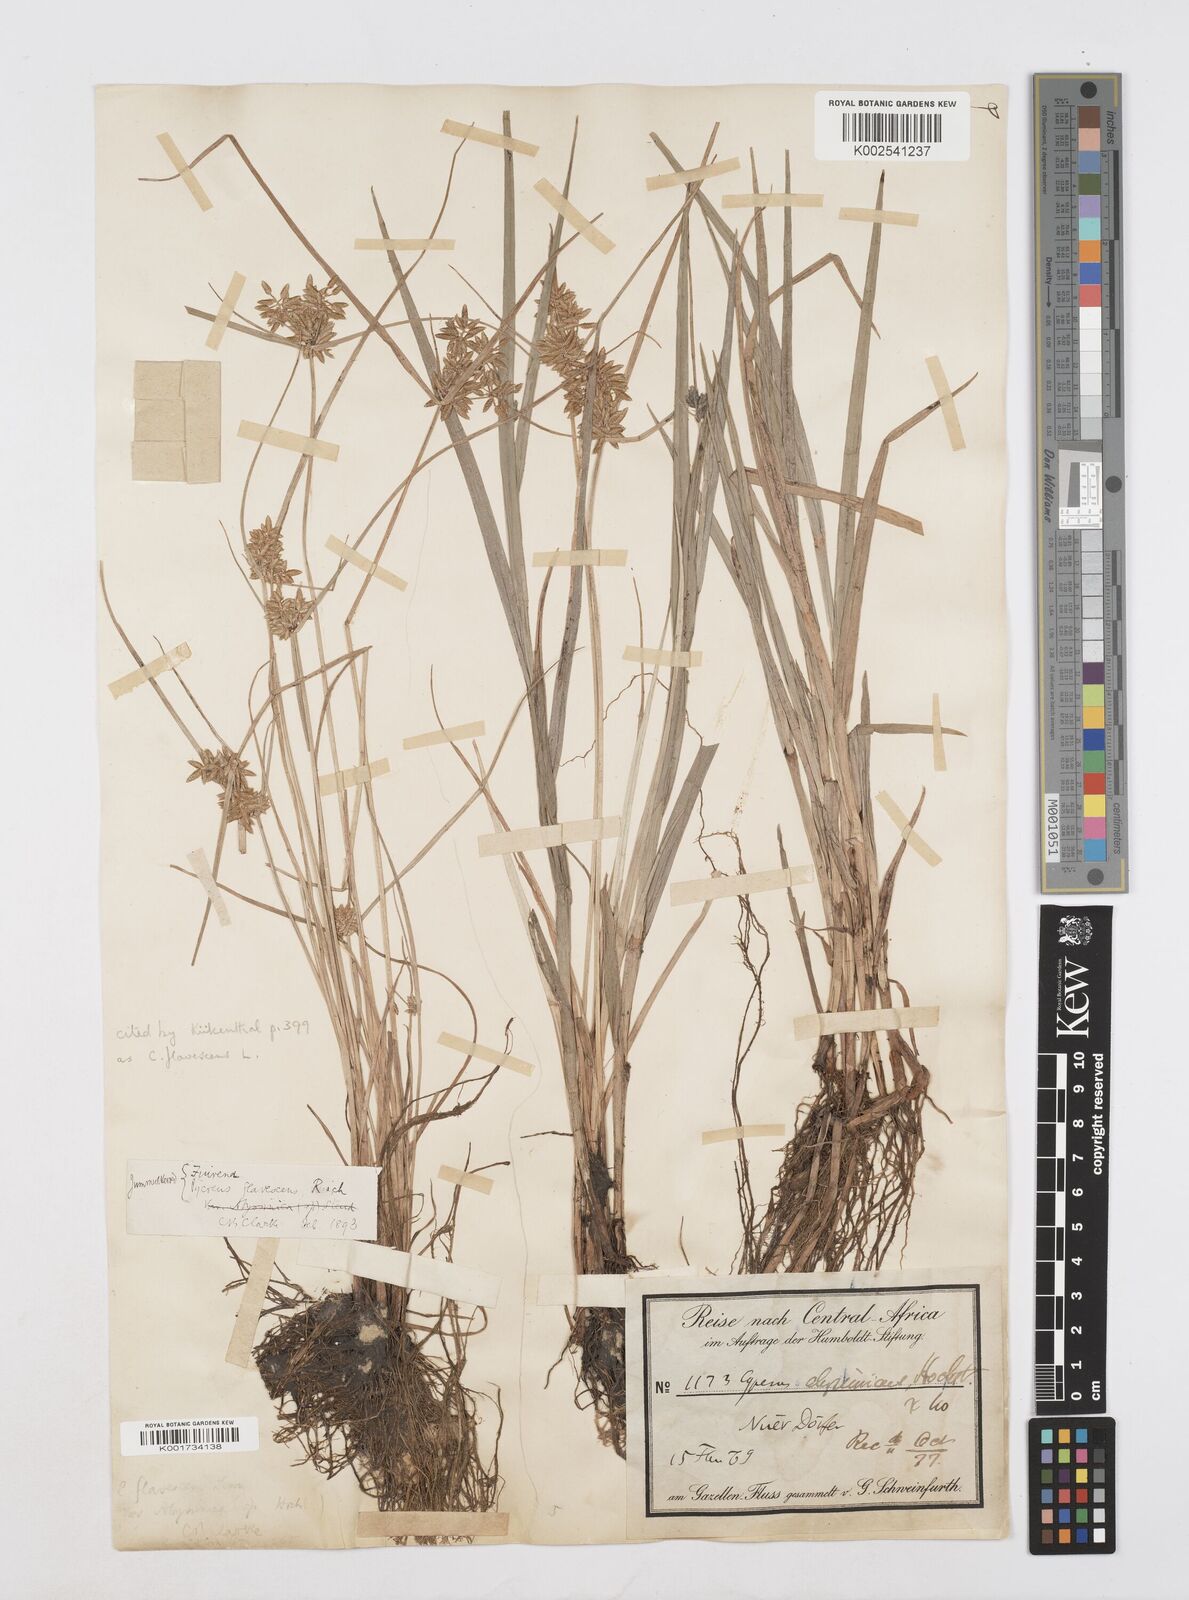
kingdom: Plantae
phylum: Tracheophyta
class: Liliopsida
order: Poales
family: Cyperaceae
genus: Cyperus
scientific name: Cyperus flavescens
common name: Yellow galingale
